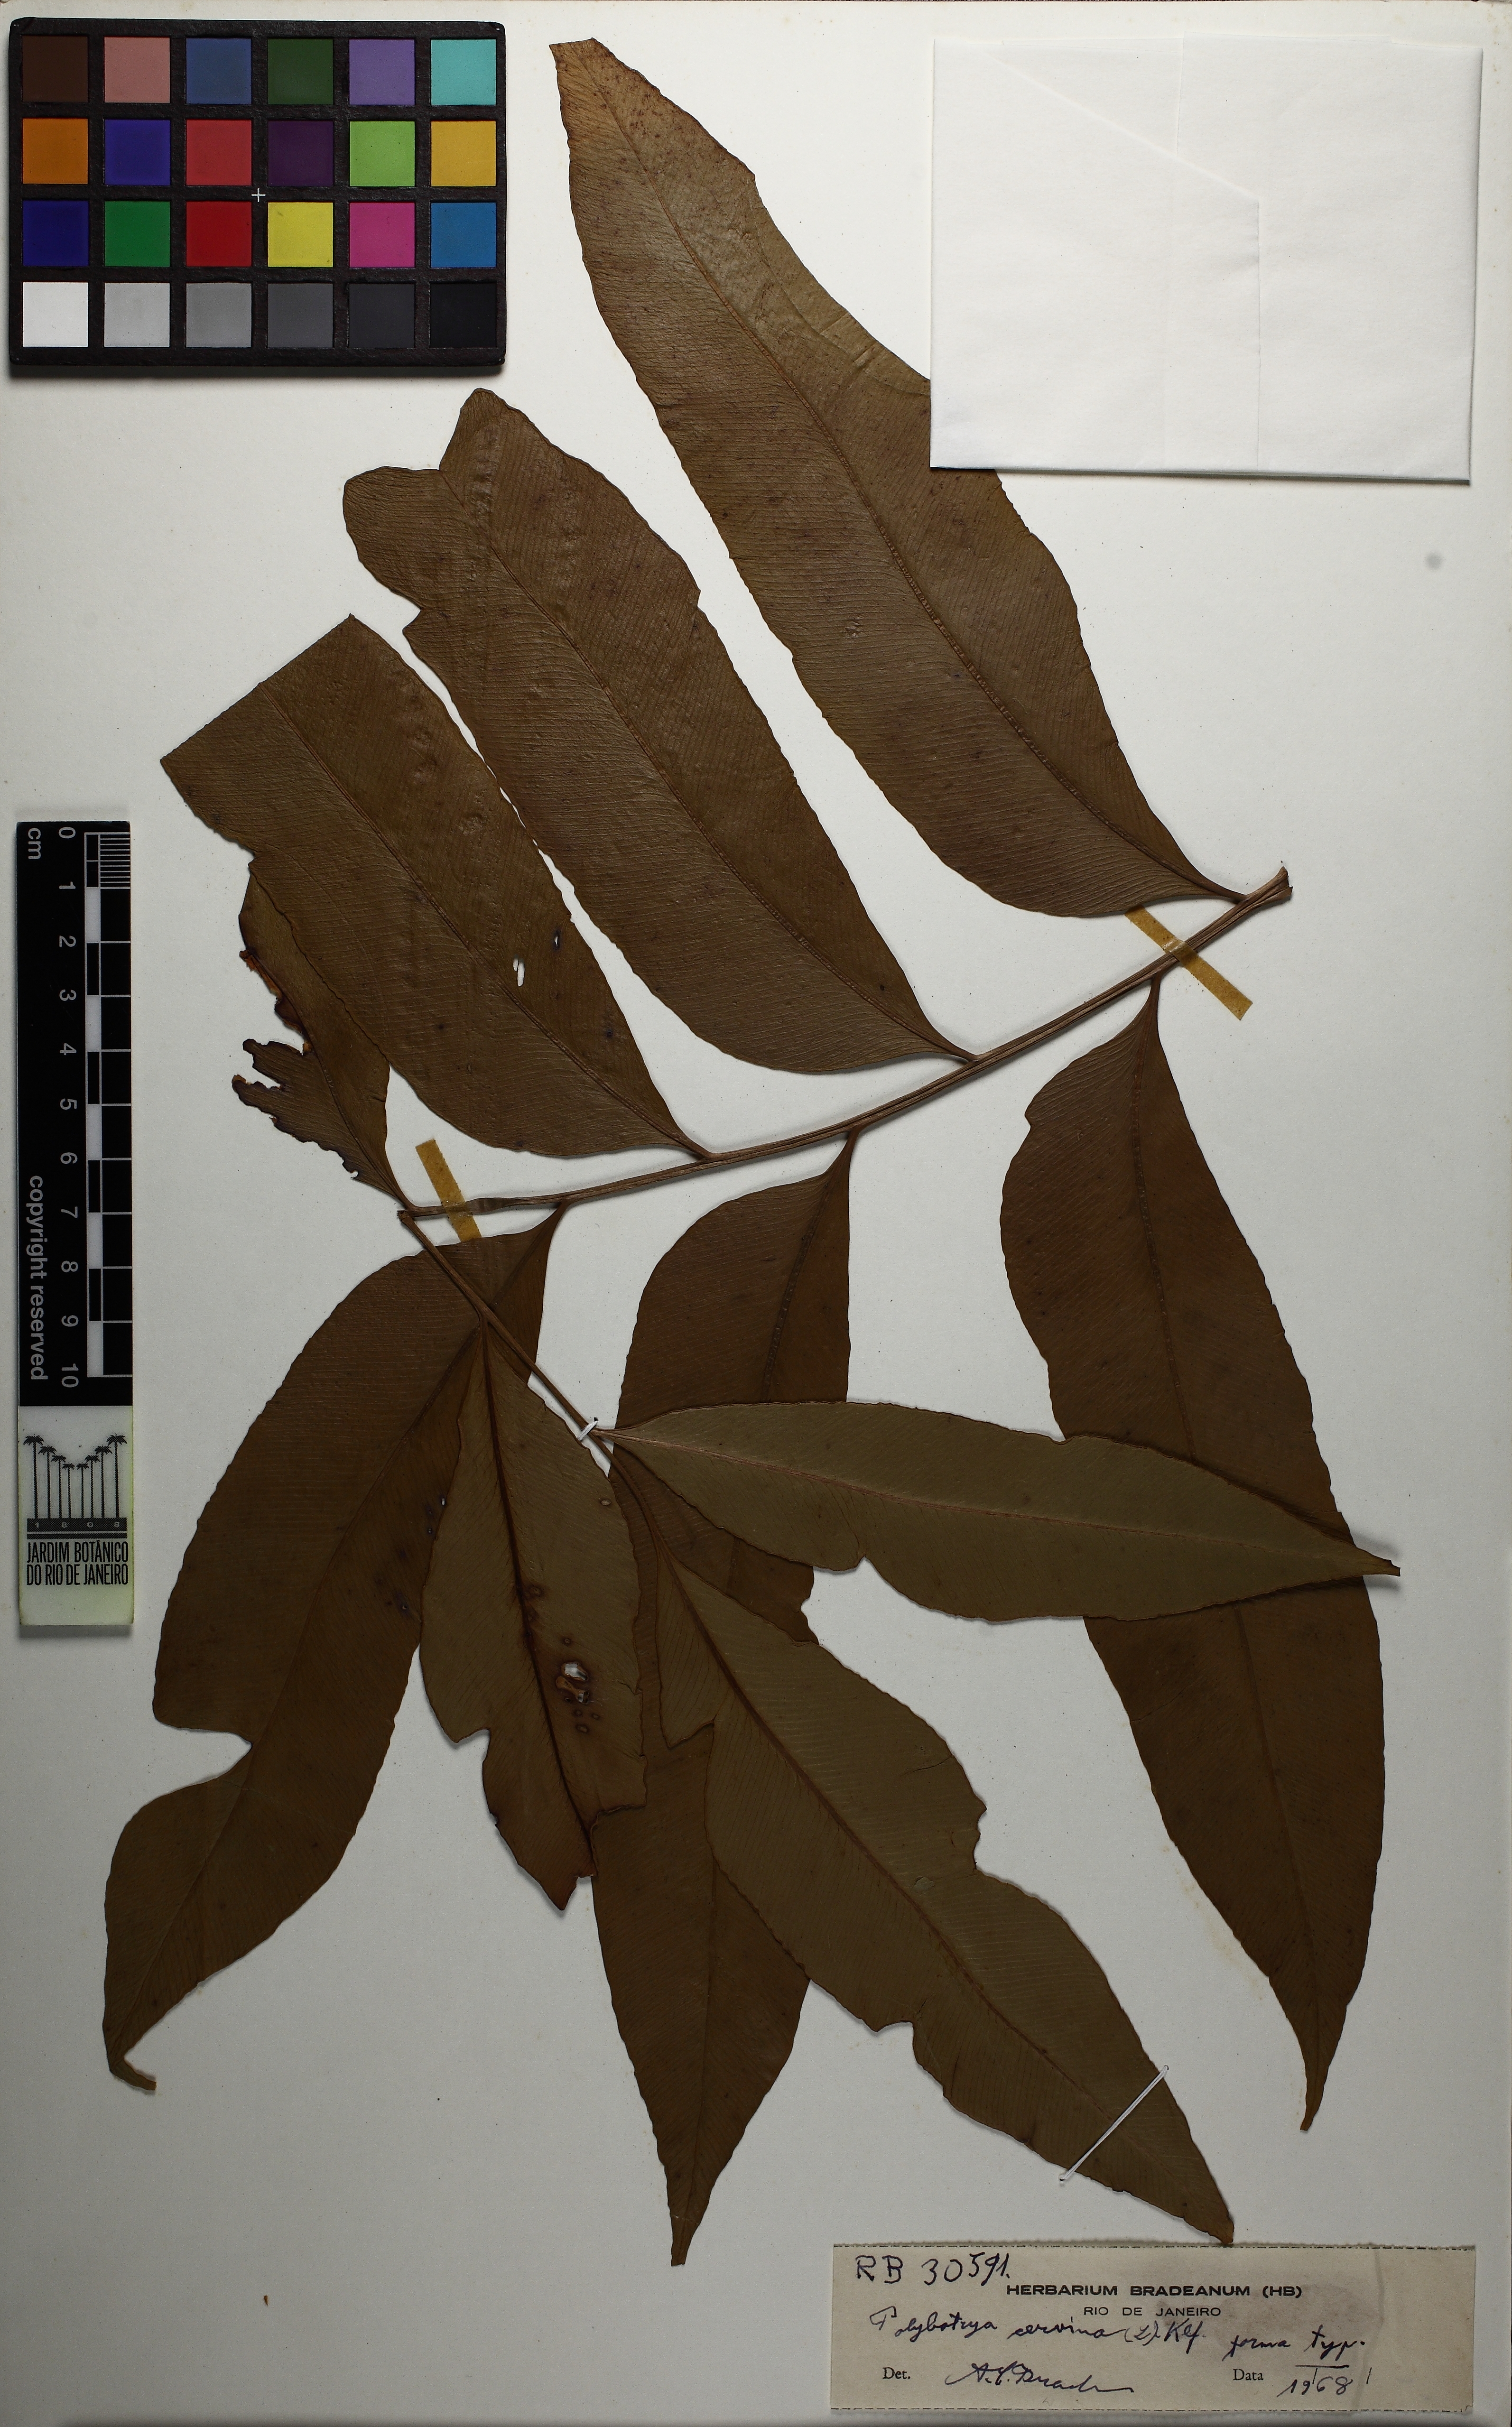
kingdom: Plantae
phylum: Tracheophyta
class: Polypodiopsida
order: Polypodiales
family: Dryopteridaceae
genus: Olfersia
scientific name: Olfersia cervina
